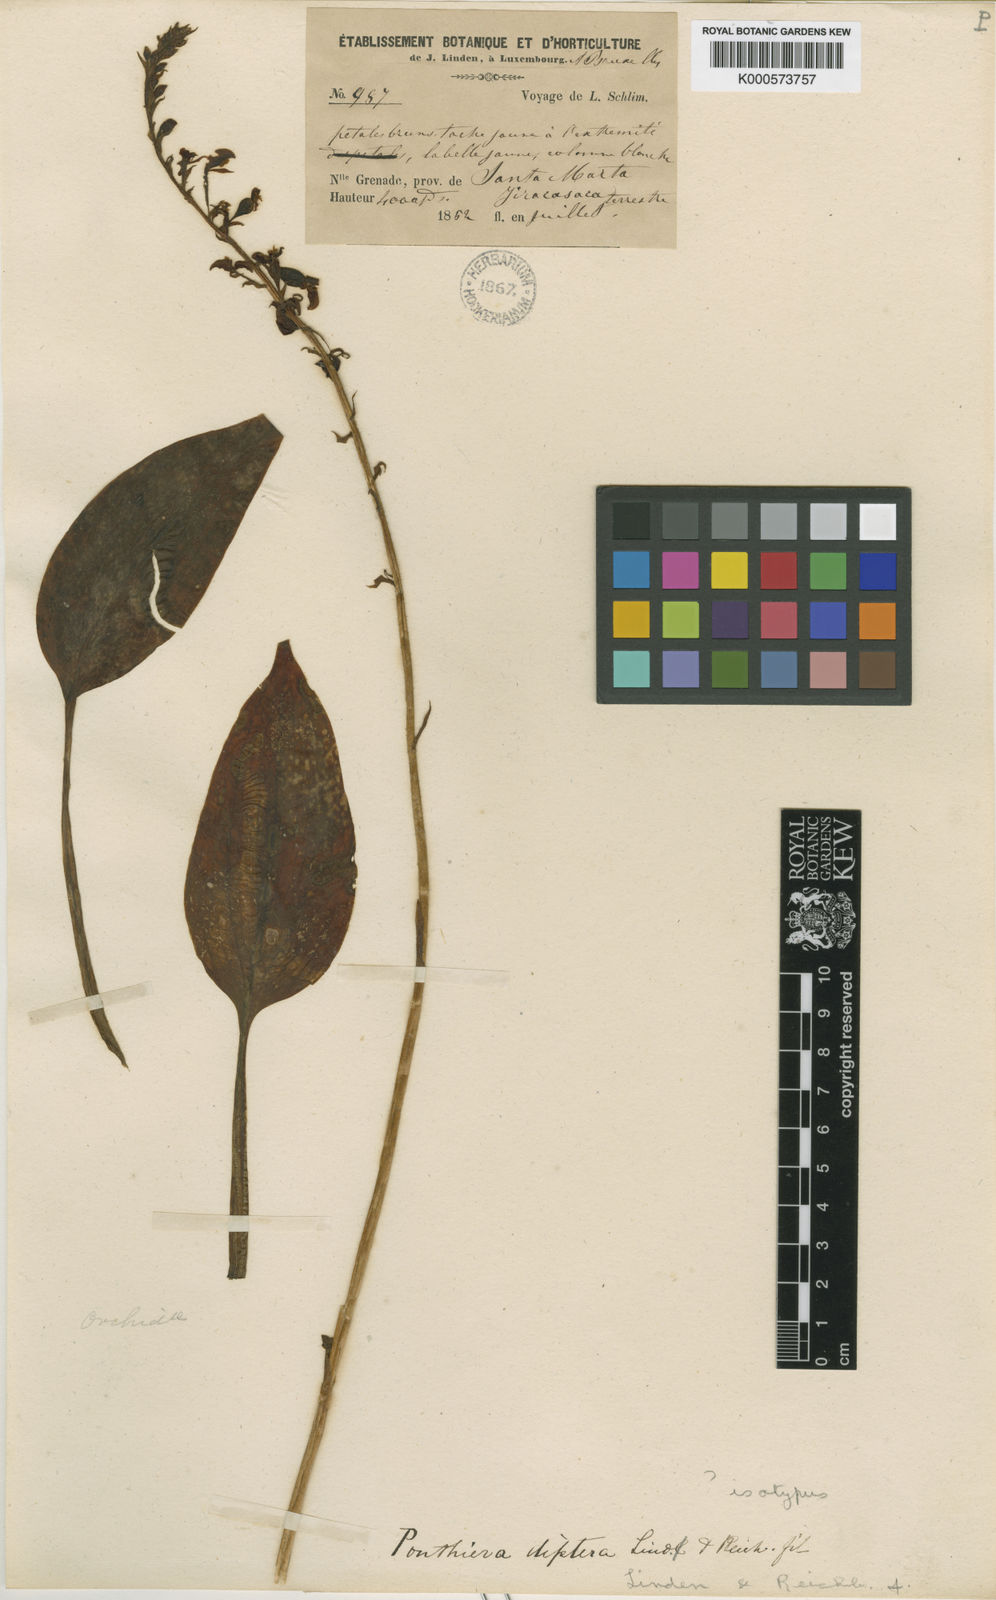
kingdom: Plantae
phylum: Tracheophyta
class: Liliopsida
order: Asparagales
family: Orchidaceae
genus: Ponthieva
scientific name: Ponthieva diptera
